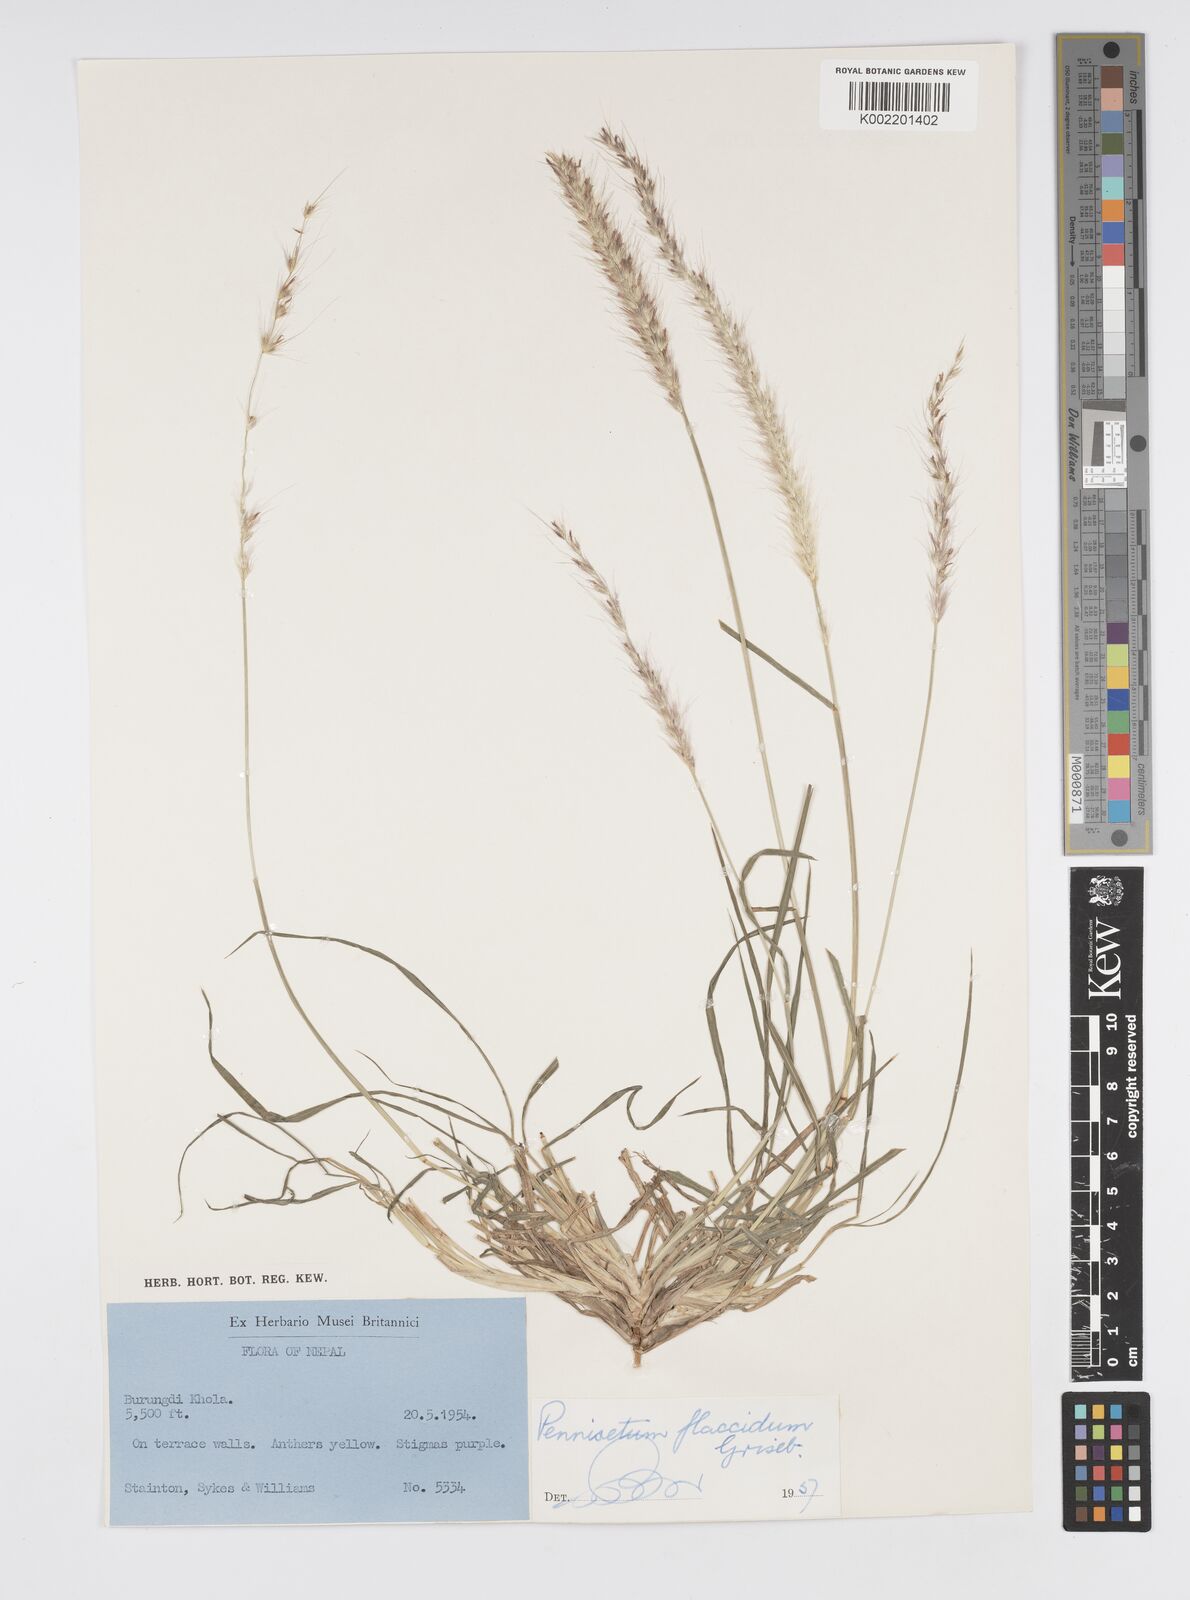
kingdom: Plantae
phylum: Tracheophyta
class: Liliopsida
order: Poales
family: Poaceae
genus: Cenchrus
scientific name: Cenchrus flaccidus
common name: Flaccid grass
